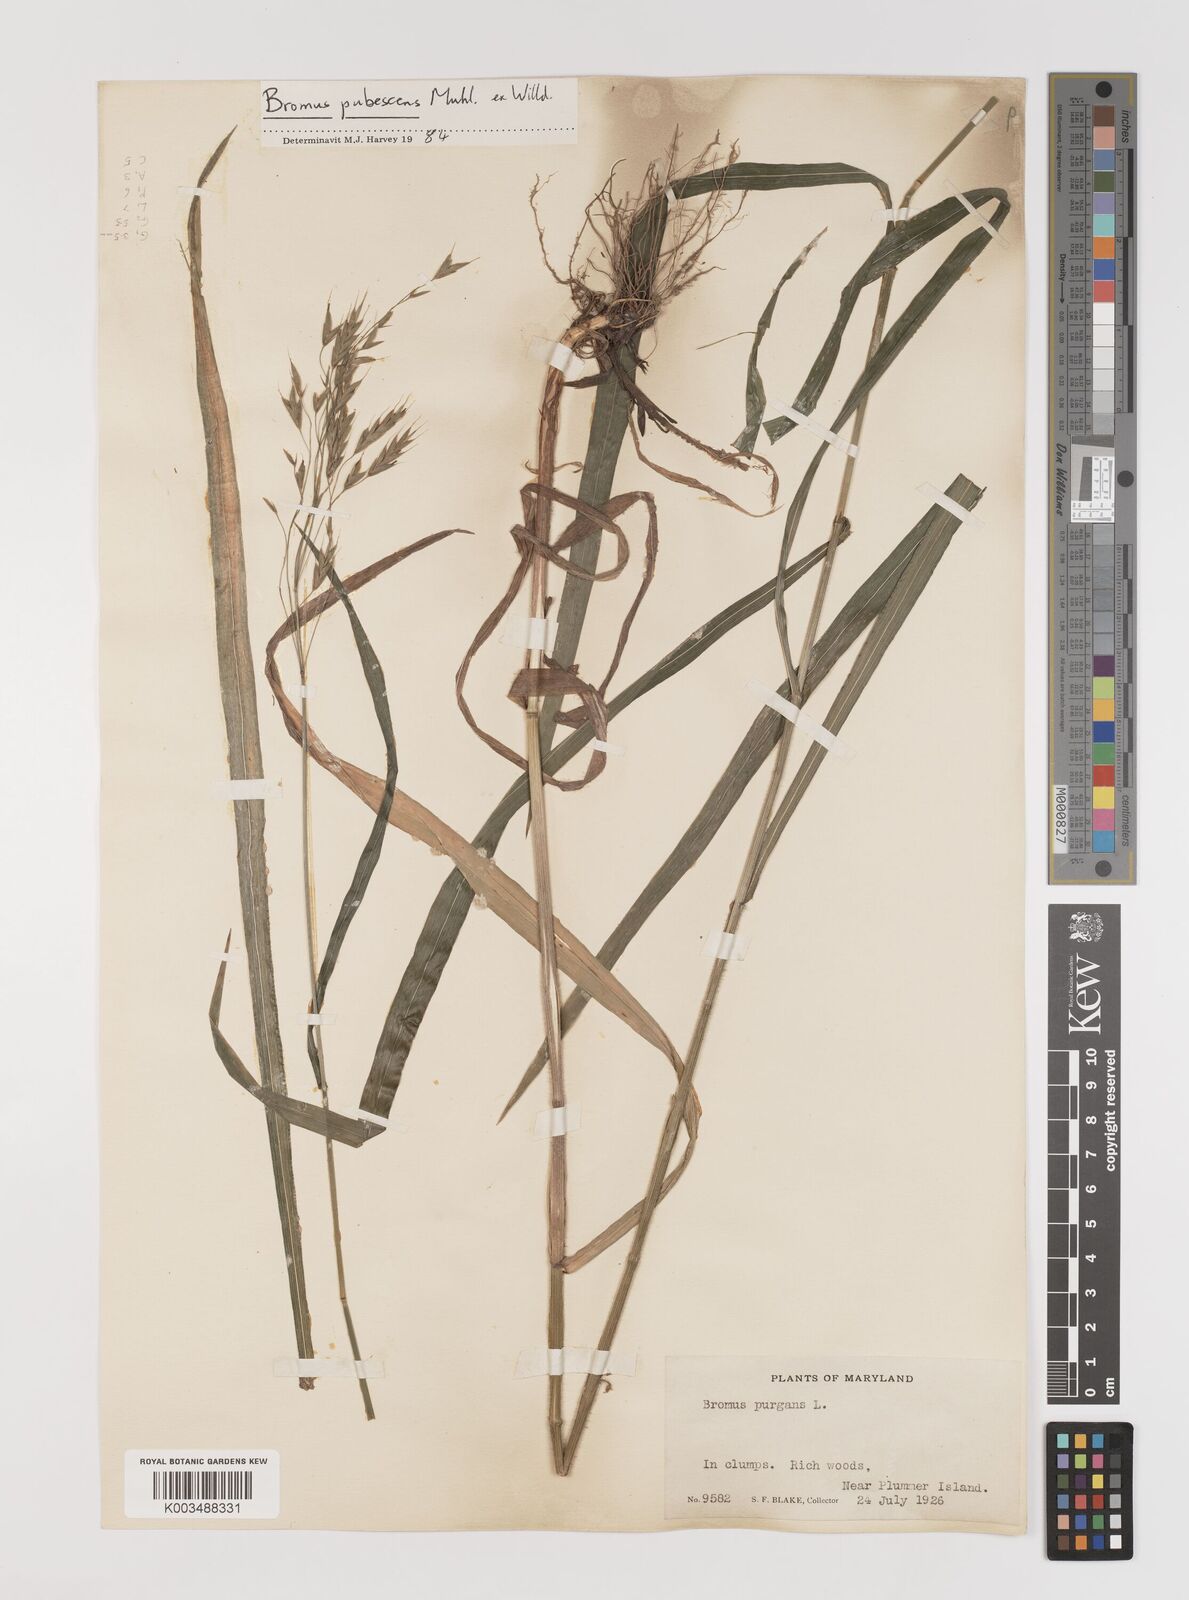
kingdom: Plantae
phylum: Tracheophyta
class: Liliopsida
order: Poales
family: Poaceae
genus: Bromus
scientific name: Bromus pubescens
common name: Hairy wood brome grass
